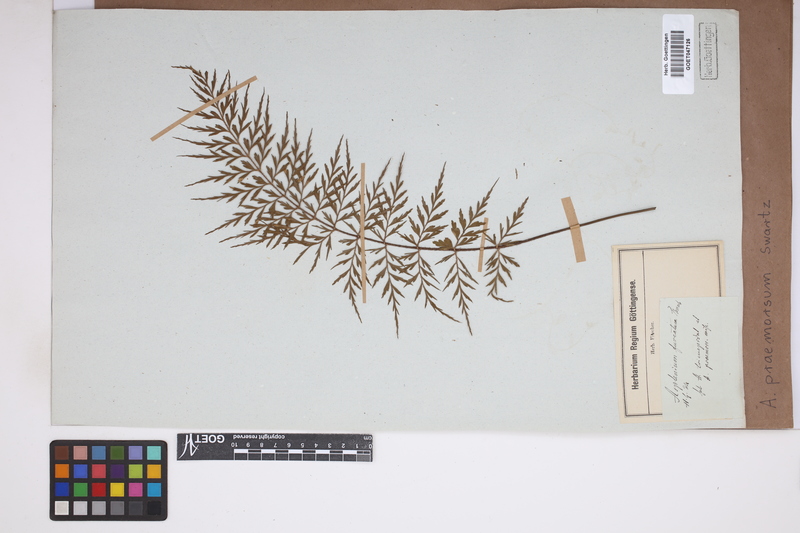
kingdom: Plantae
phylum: Tracheophyta
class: Polypodiopsida
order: Polypodiales
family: Aspleniaceae
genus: Asplenium
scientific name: Asplenium praemorsum
